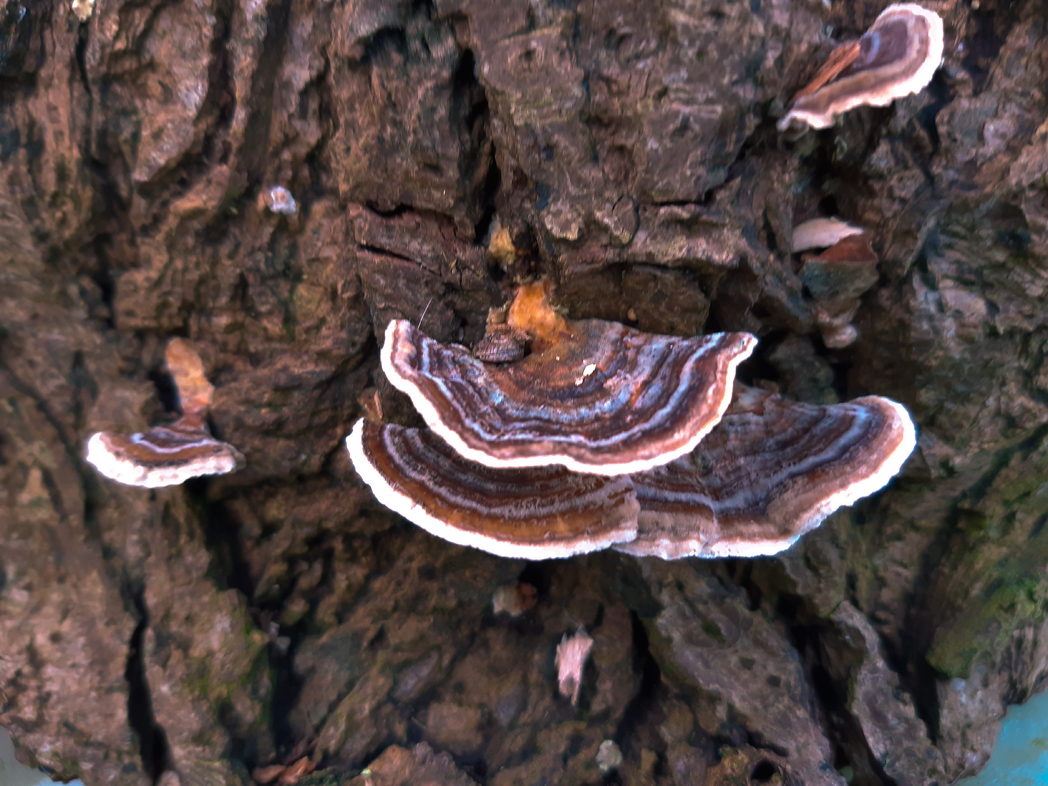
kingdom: Fungi
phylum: Basidiomycota
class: Agaricomycetes
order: Polyporales
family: Polyporaceae
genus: Trametes
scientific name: Trametes versicolor
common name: broget læderporesvamp
